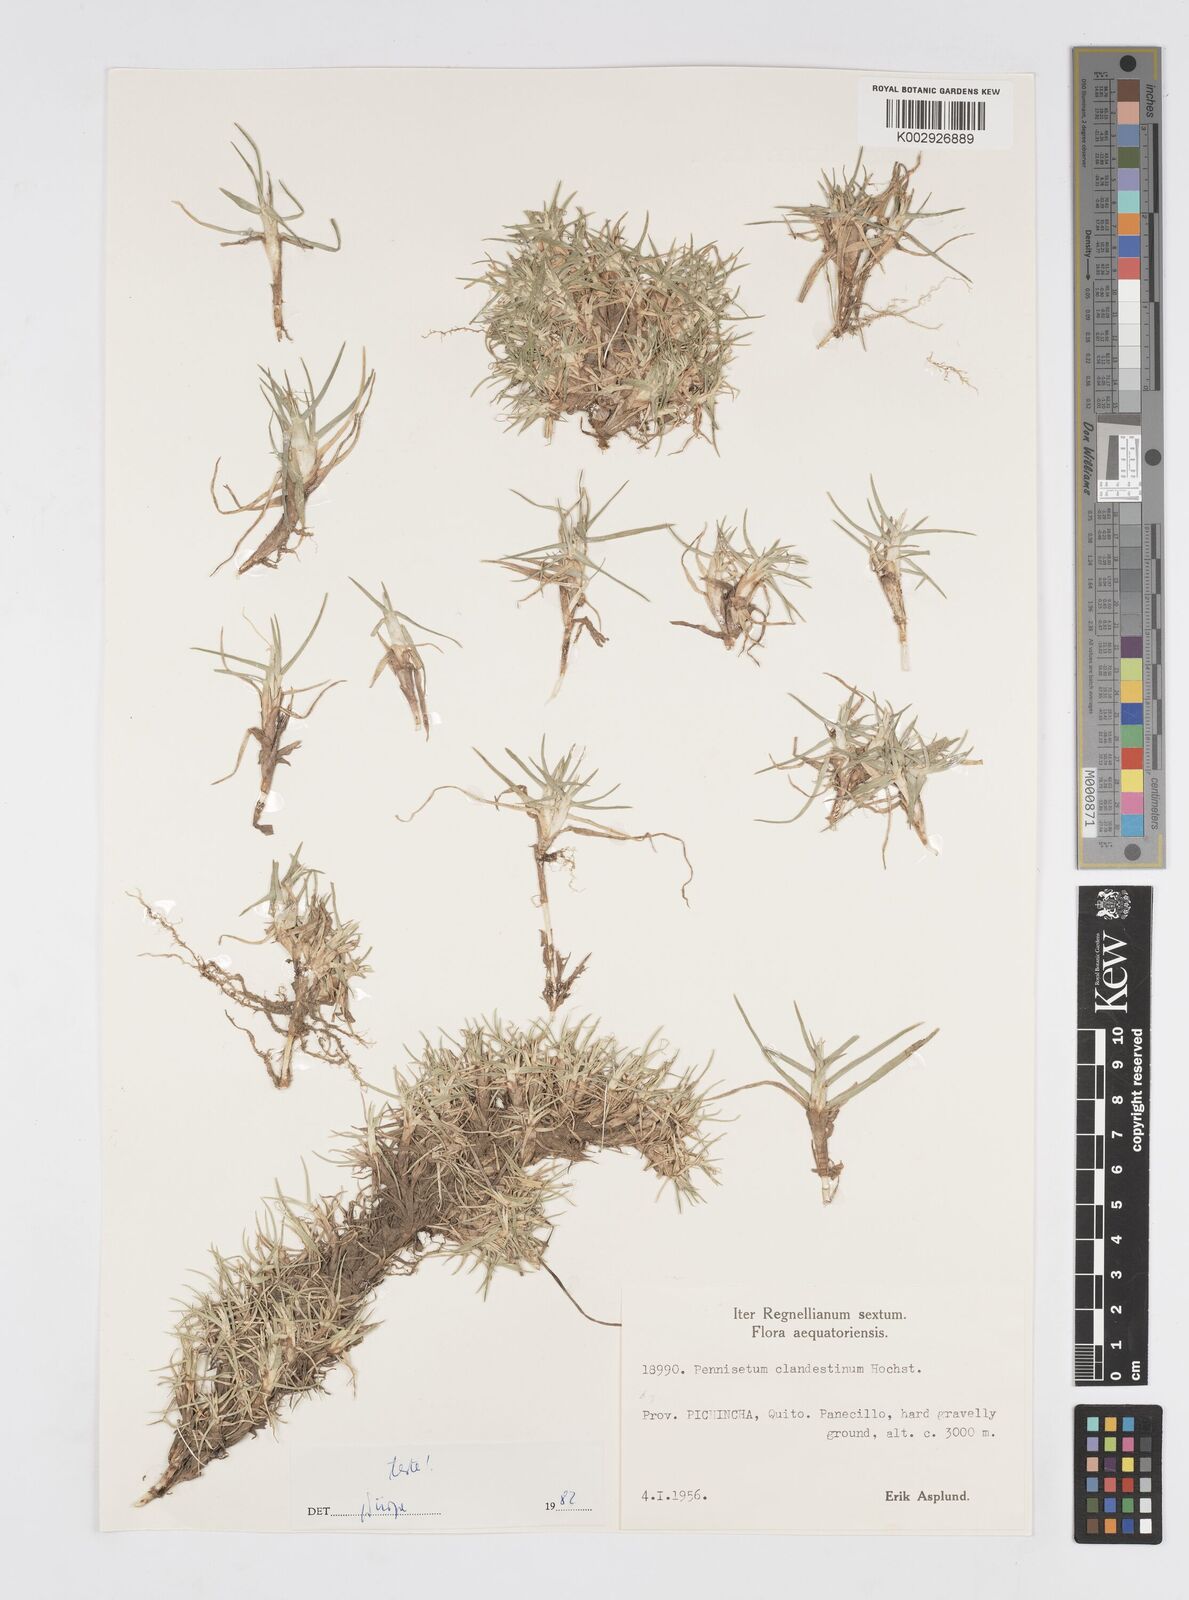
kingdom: Plantae
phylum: Tracheophyta
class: Liliopsida
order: Poales
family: Poaceae
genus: Cenchrus
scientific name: Cenchrus clandestinus
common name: Kikuyugrass
